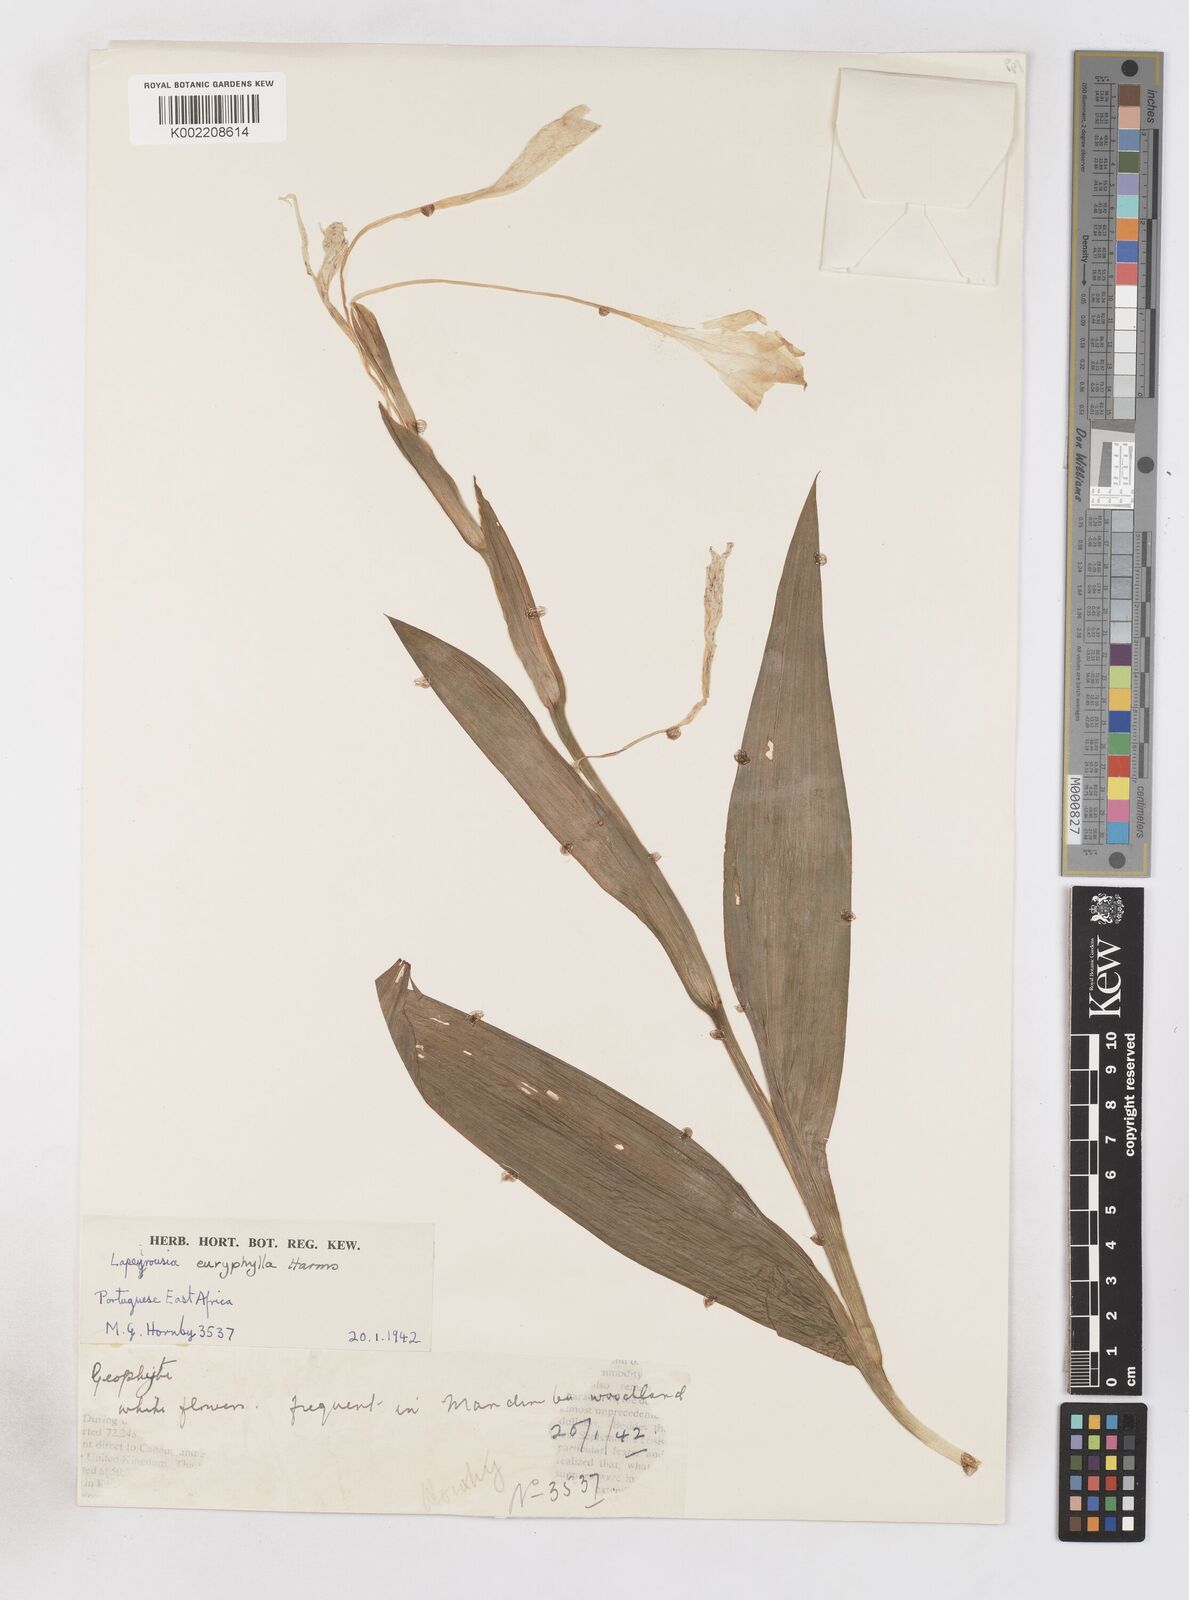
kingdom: Plantae
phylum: Tracheophyta
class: Liliopsida
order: Asparagales
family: Iridaceae
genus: Savannosiphon
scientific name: Savannosiphon euryphylla
